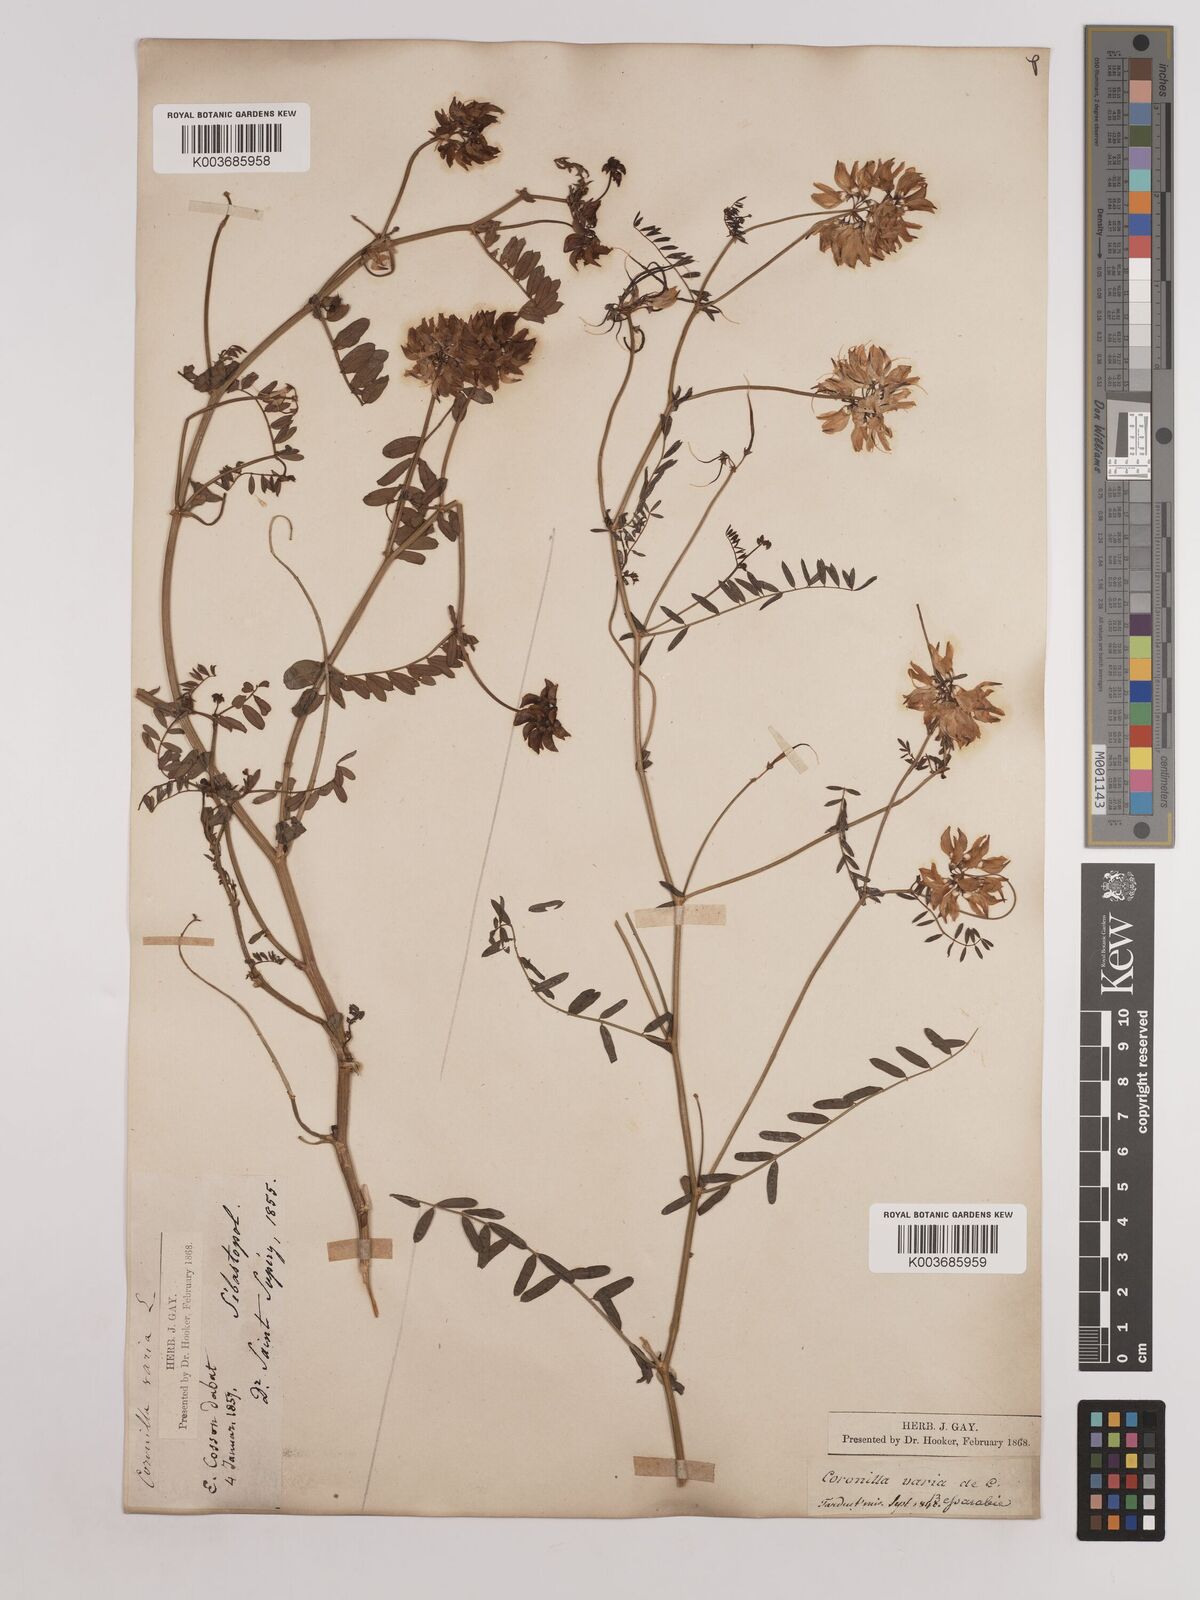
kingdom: Plantae
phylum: Tracheophyta
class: Magnoliopsida
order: Fabales
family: Fabaceae
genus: Coronilla
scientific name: Coronilla varia
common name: Crownvetch
